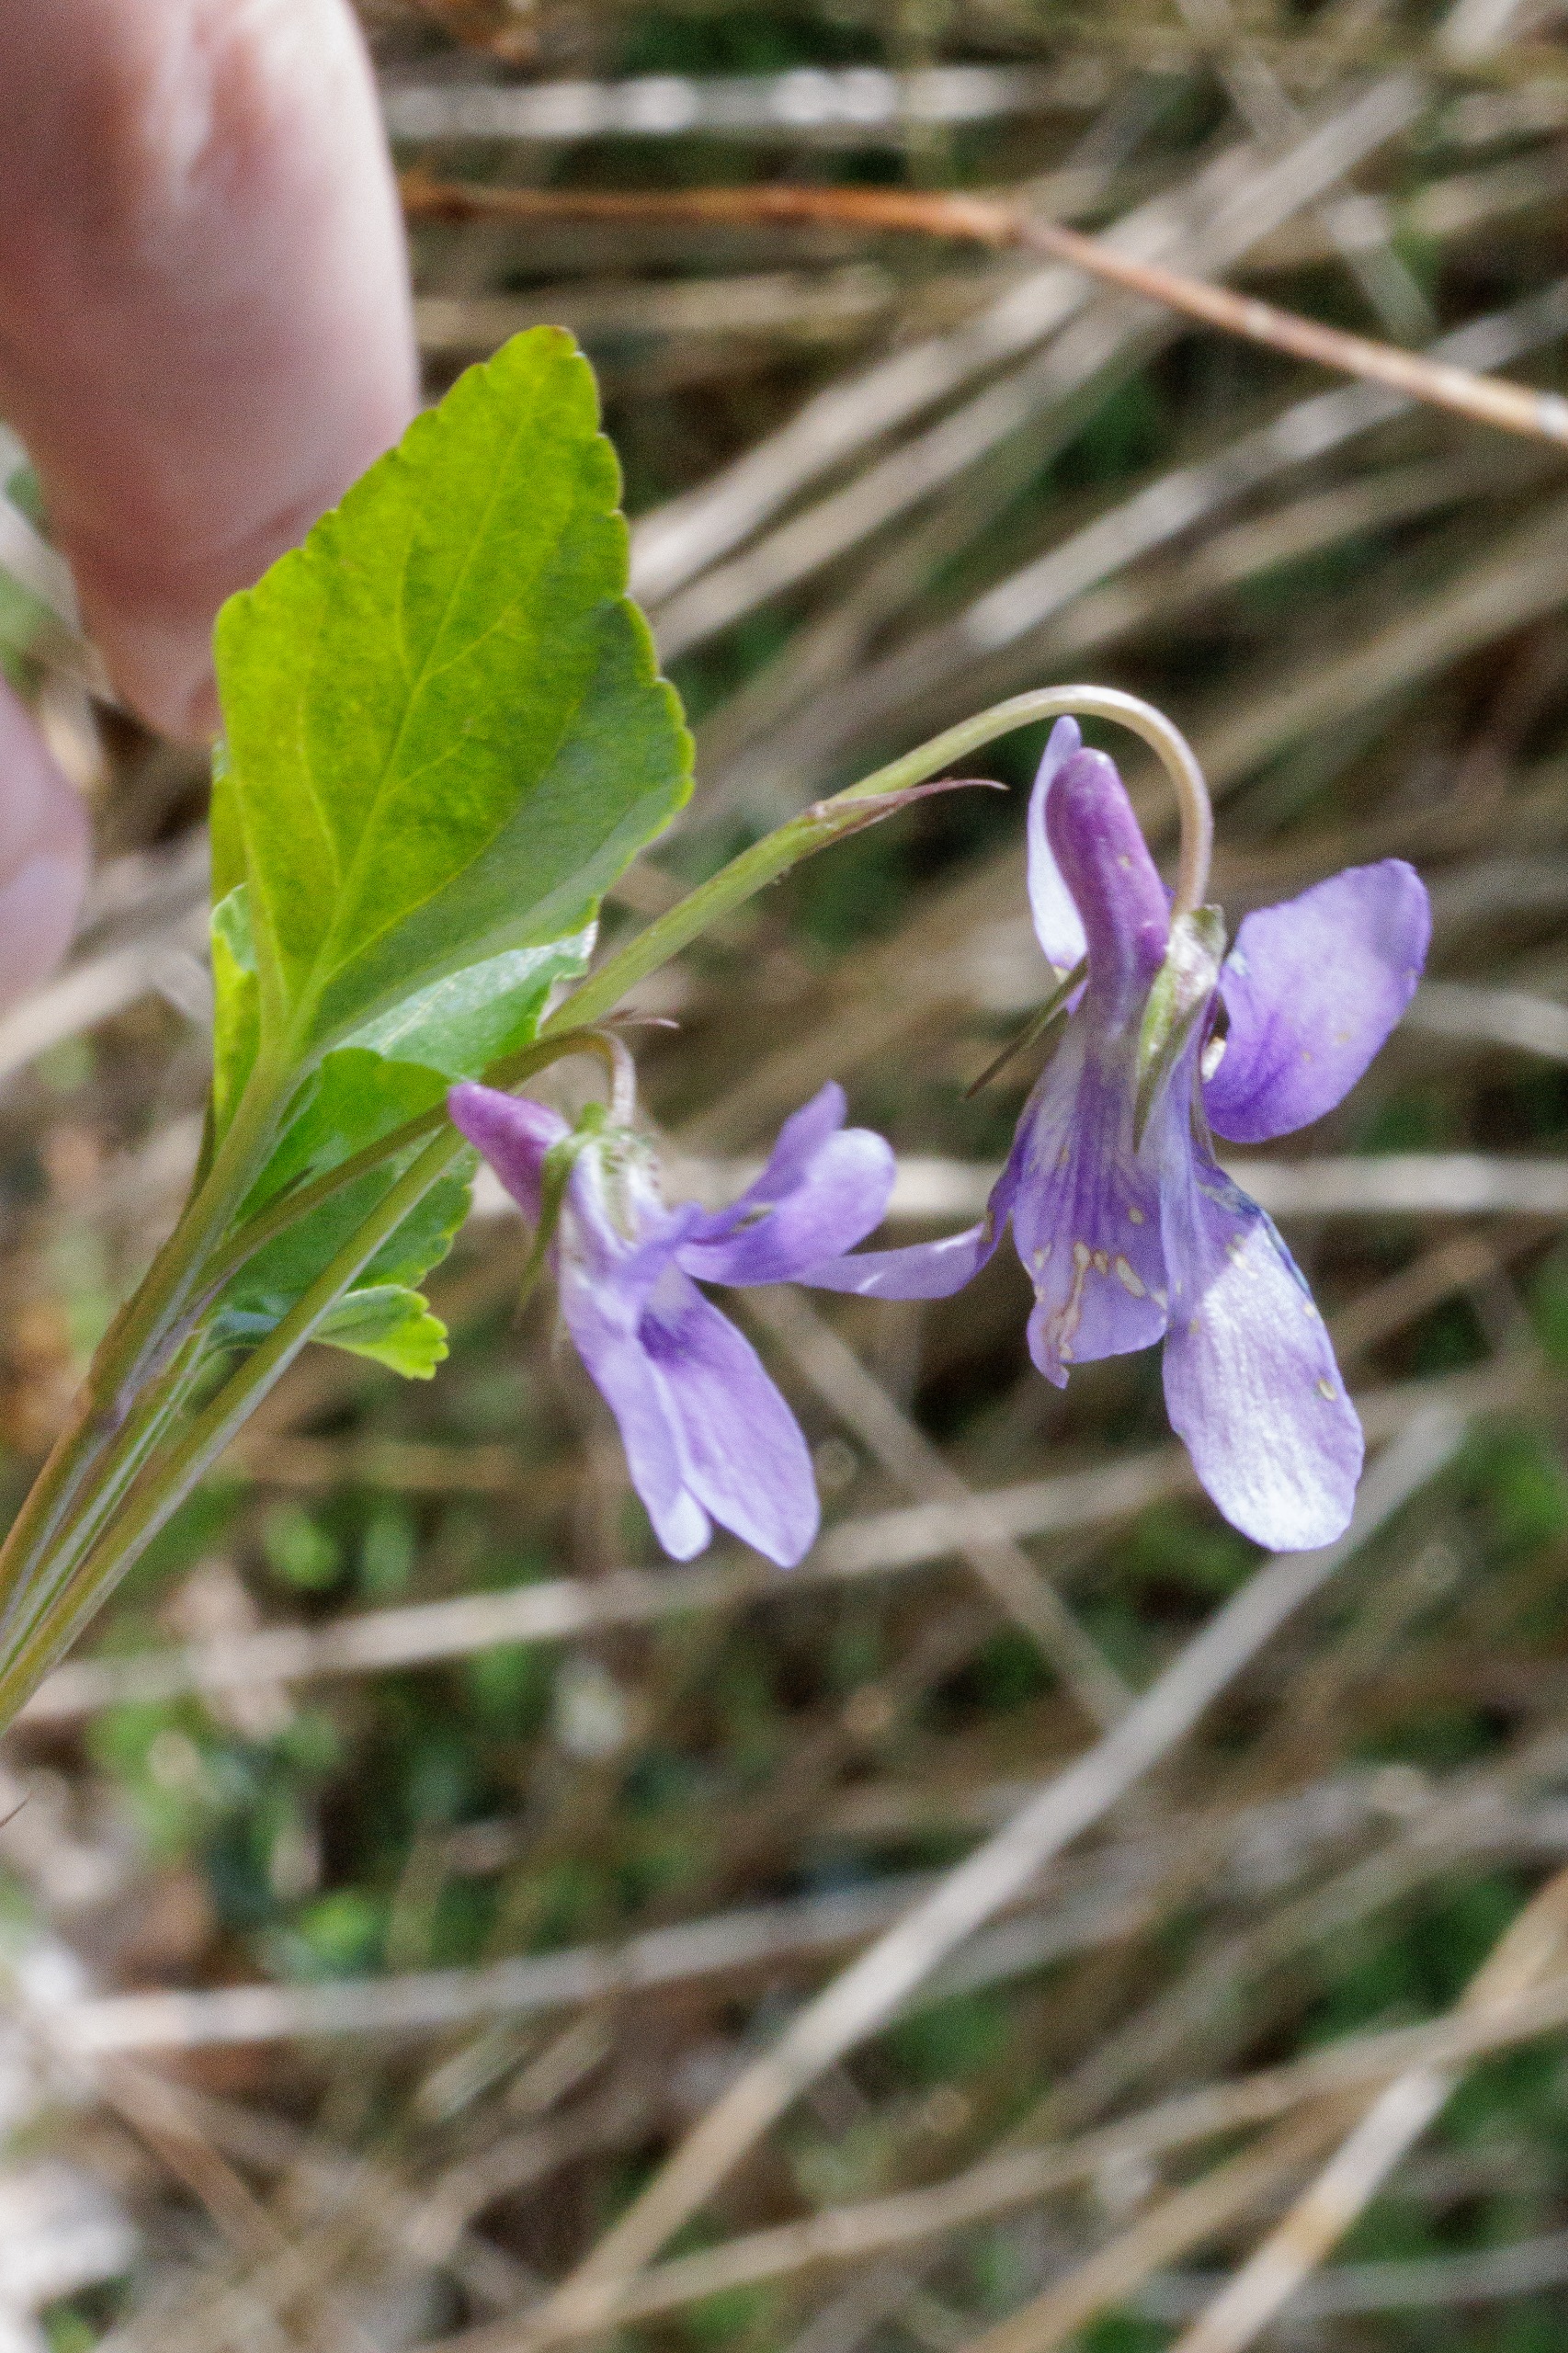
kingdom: Plantae
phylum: Tracheophyta
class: Magnoliopsida
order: Malpighiales
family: Violaceae
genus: Viola
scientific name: Viola reichenbachiana
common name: Skov-viol
